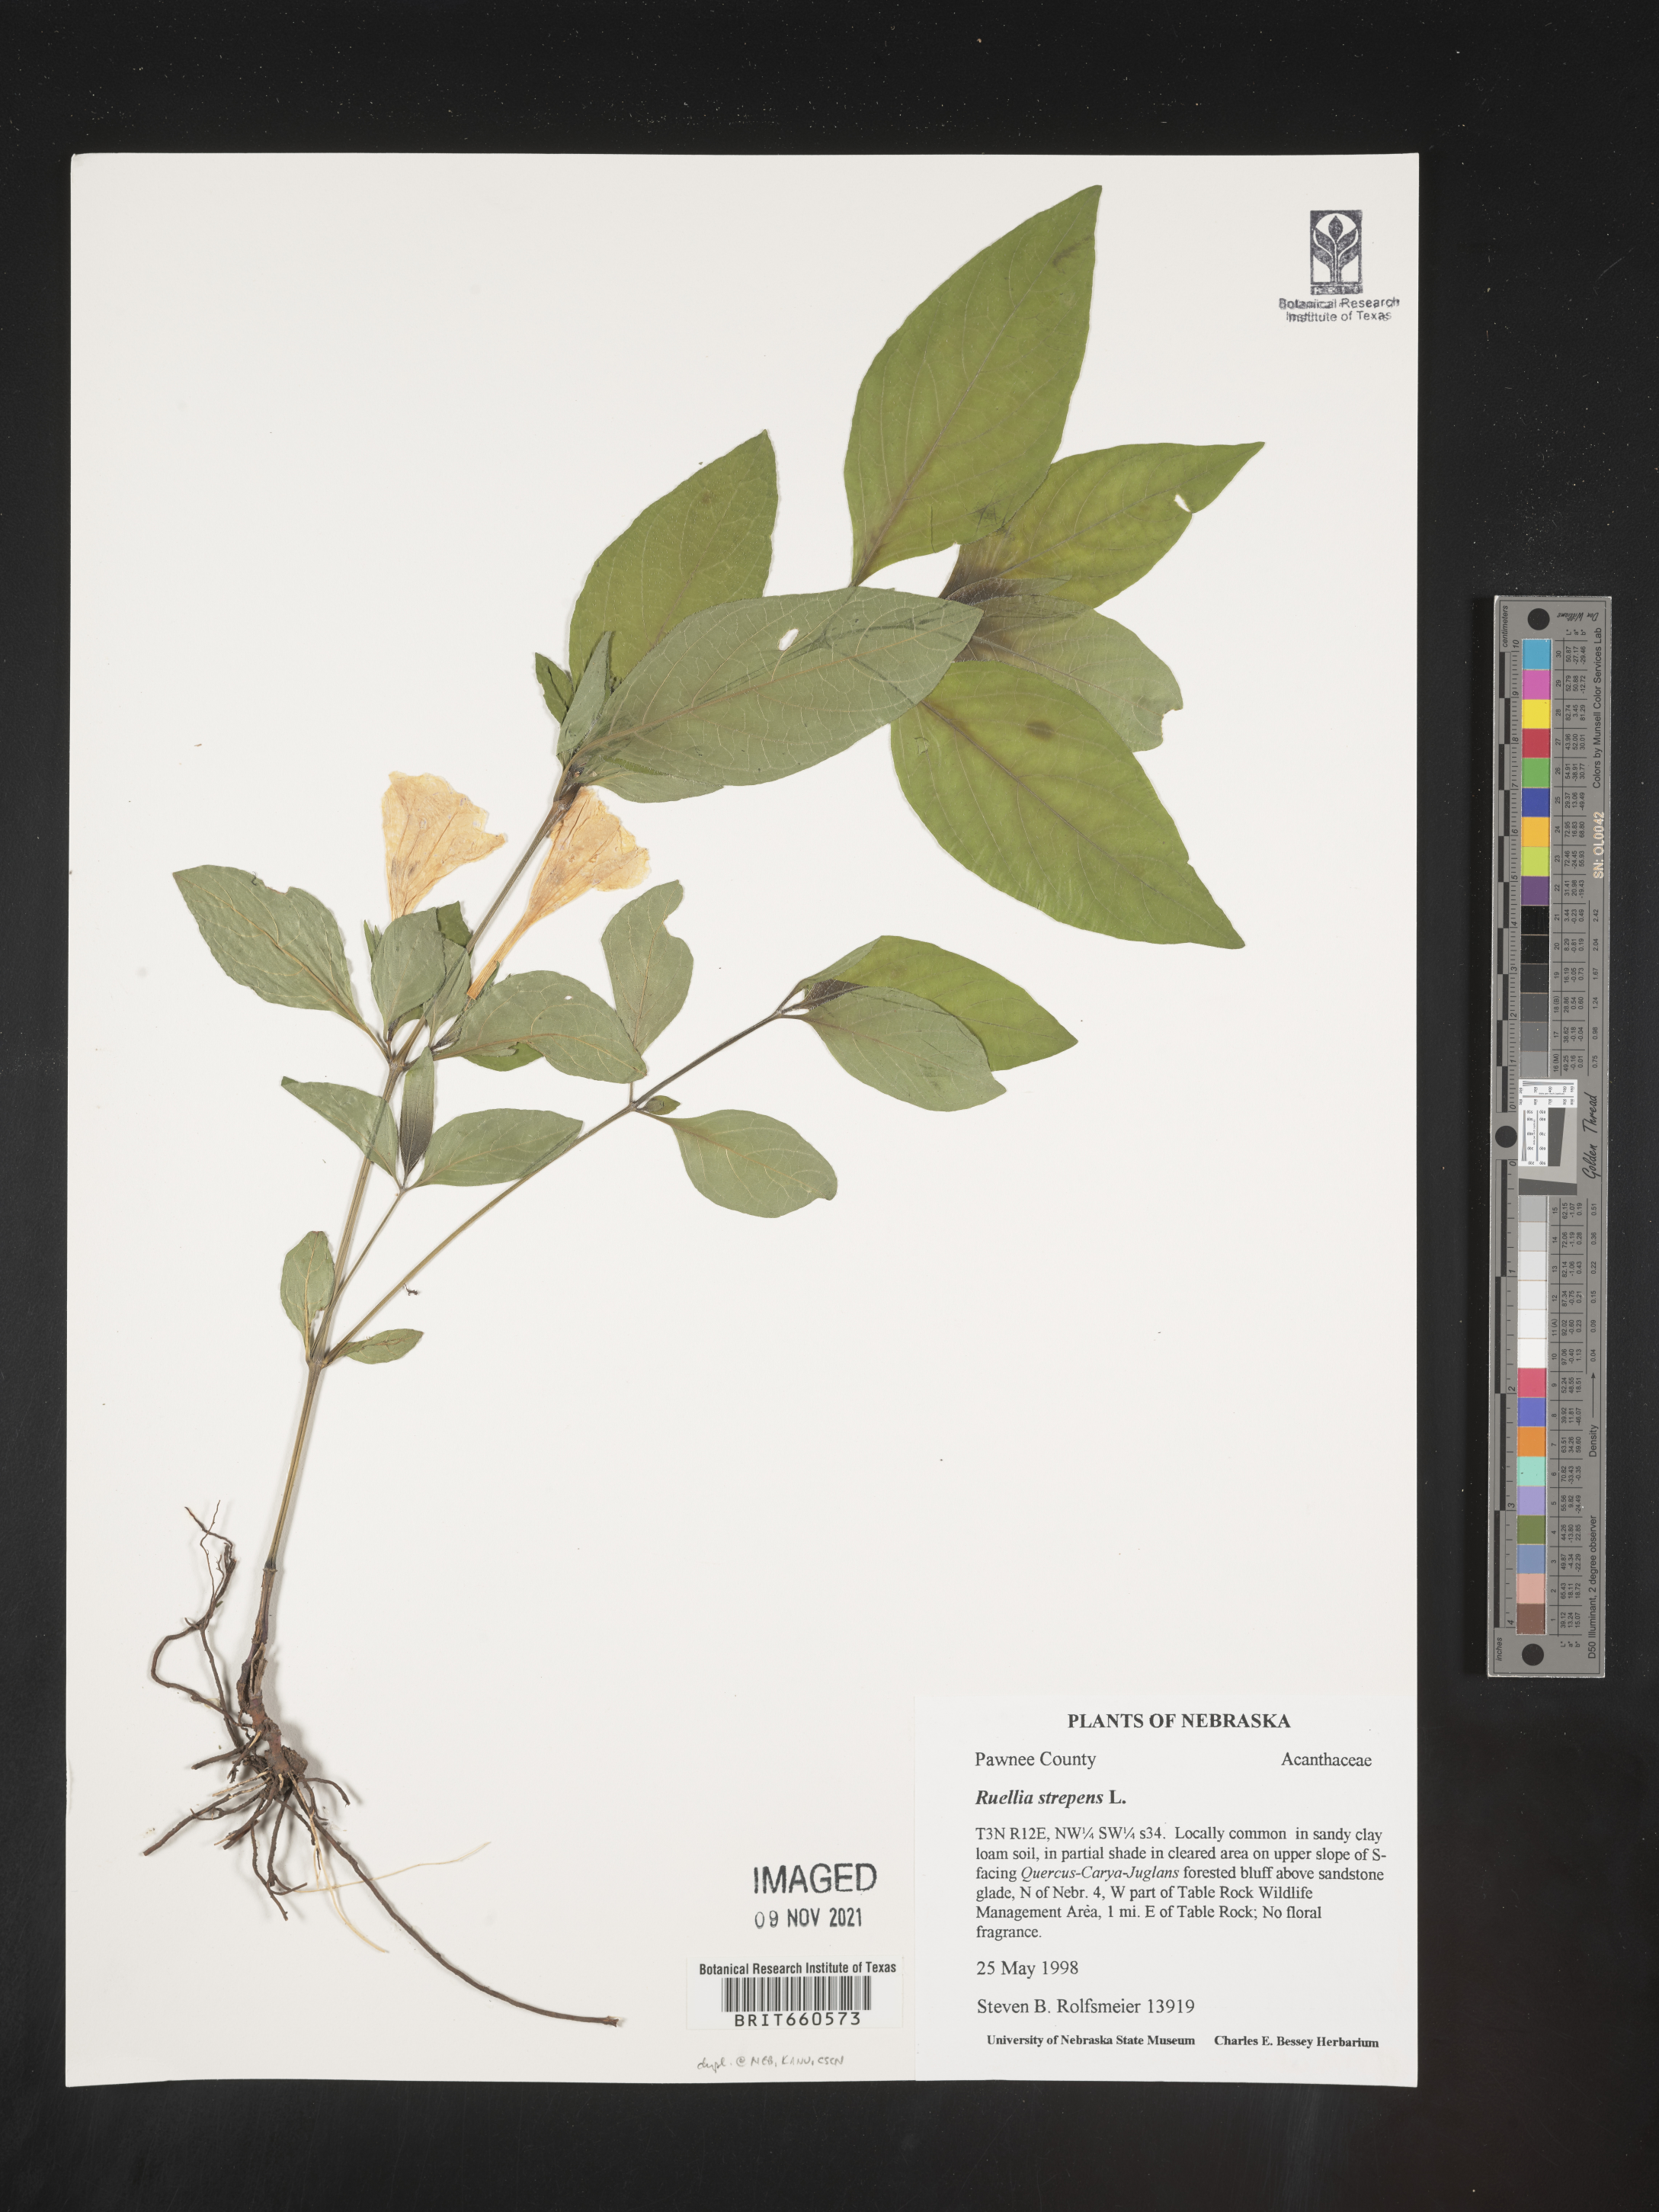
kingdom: Plantae
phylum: Tracheophyta
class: Magnoliopsida
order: Lamiales
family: Acanthaceae
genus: Ruellia
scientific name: Ruellia strepens
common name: Limestone wild petunia
